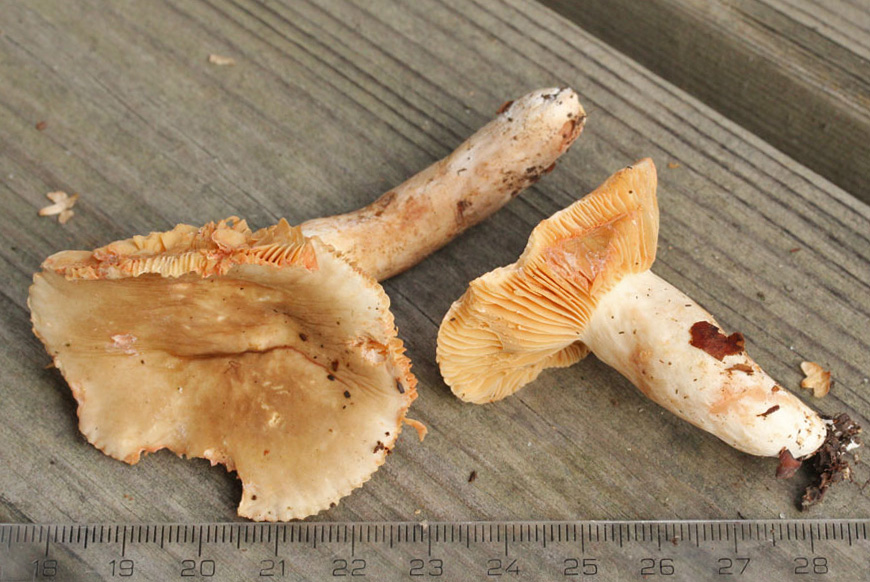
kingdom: Fungi
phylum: Basidiomycota
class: Agaricomycetes
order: Russulales
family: Russulaceae
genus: Lactarius
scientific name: Lactarius acris
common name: rosamælket mælkehat
